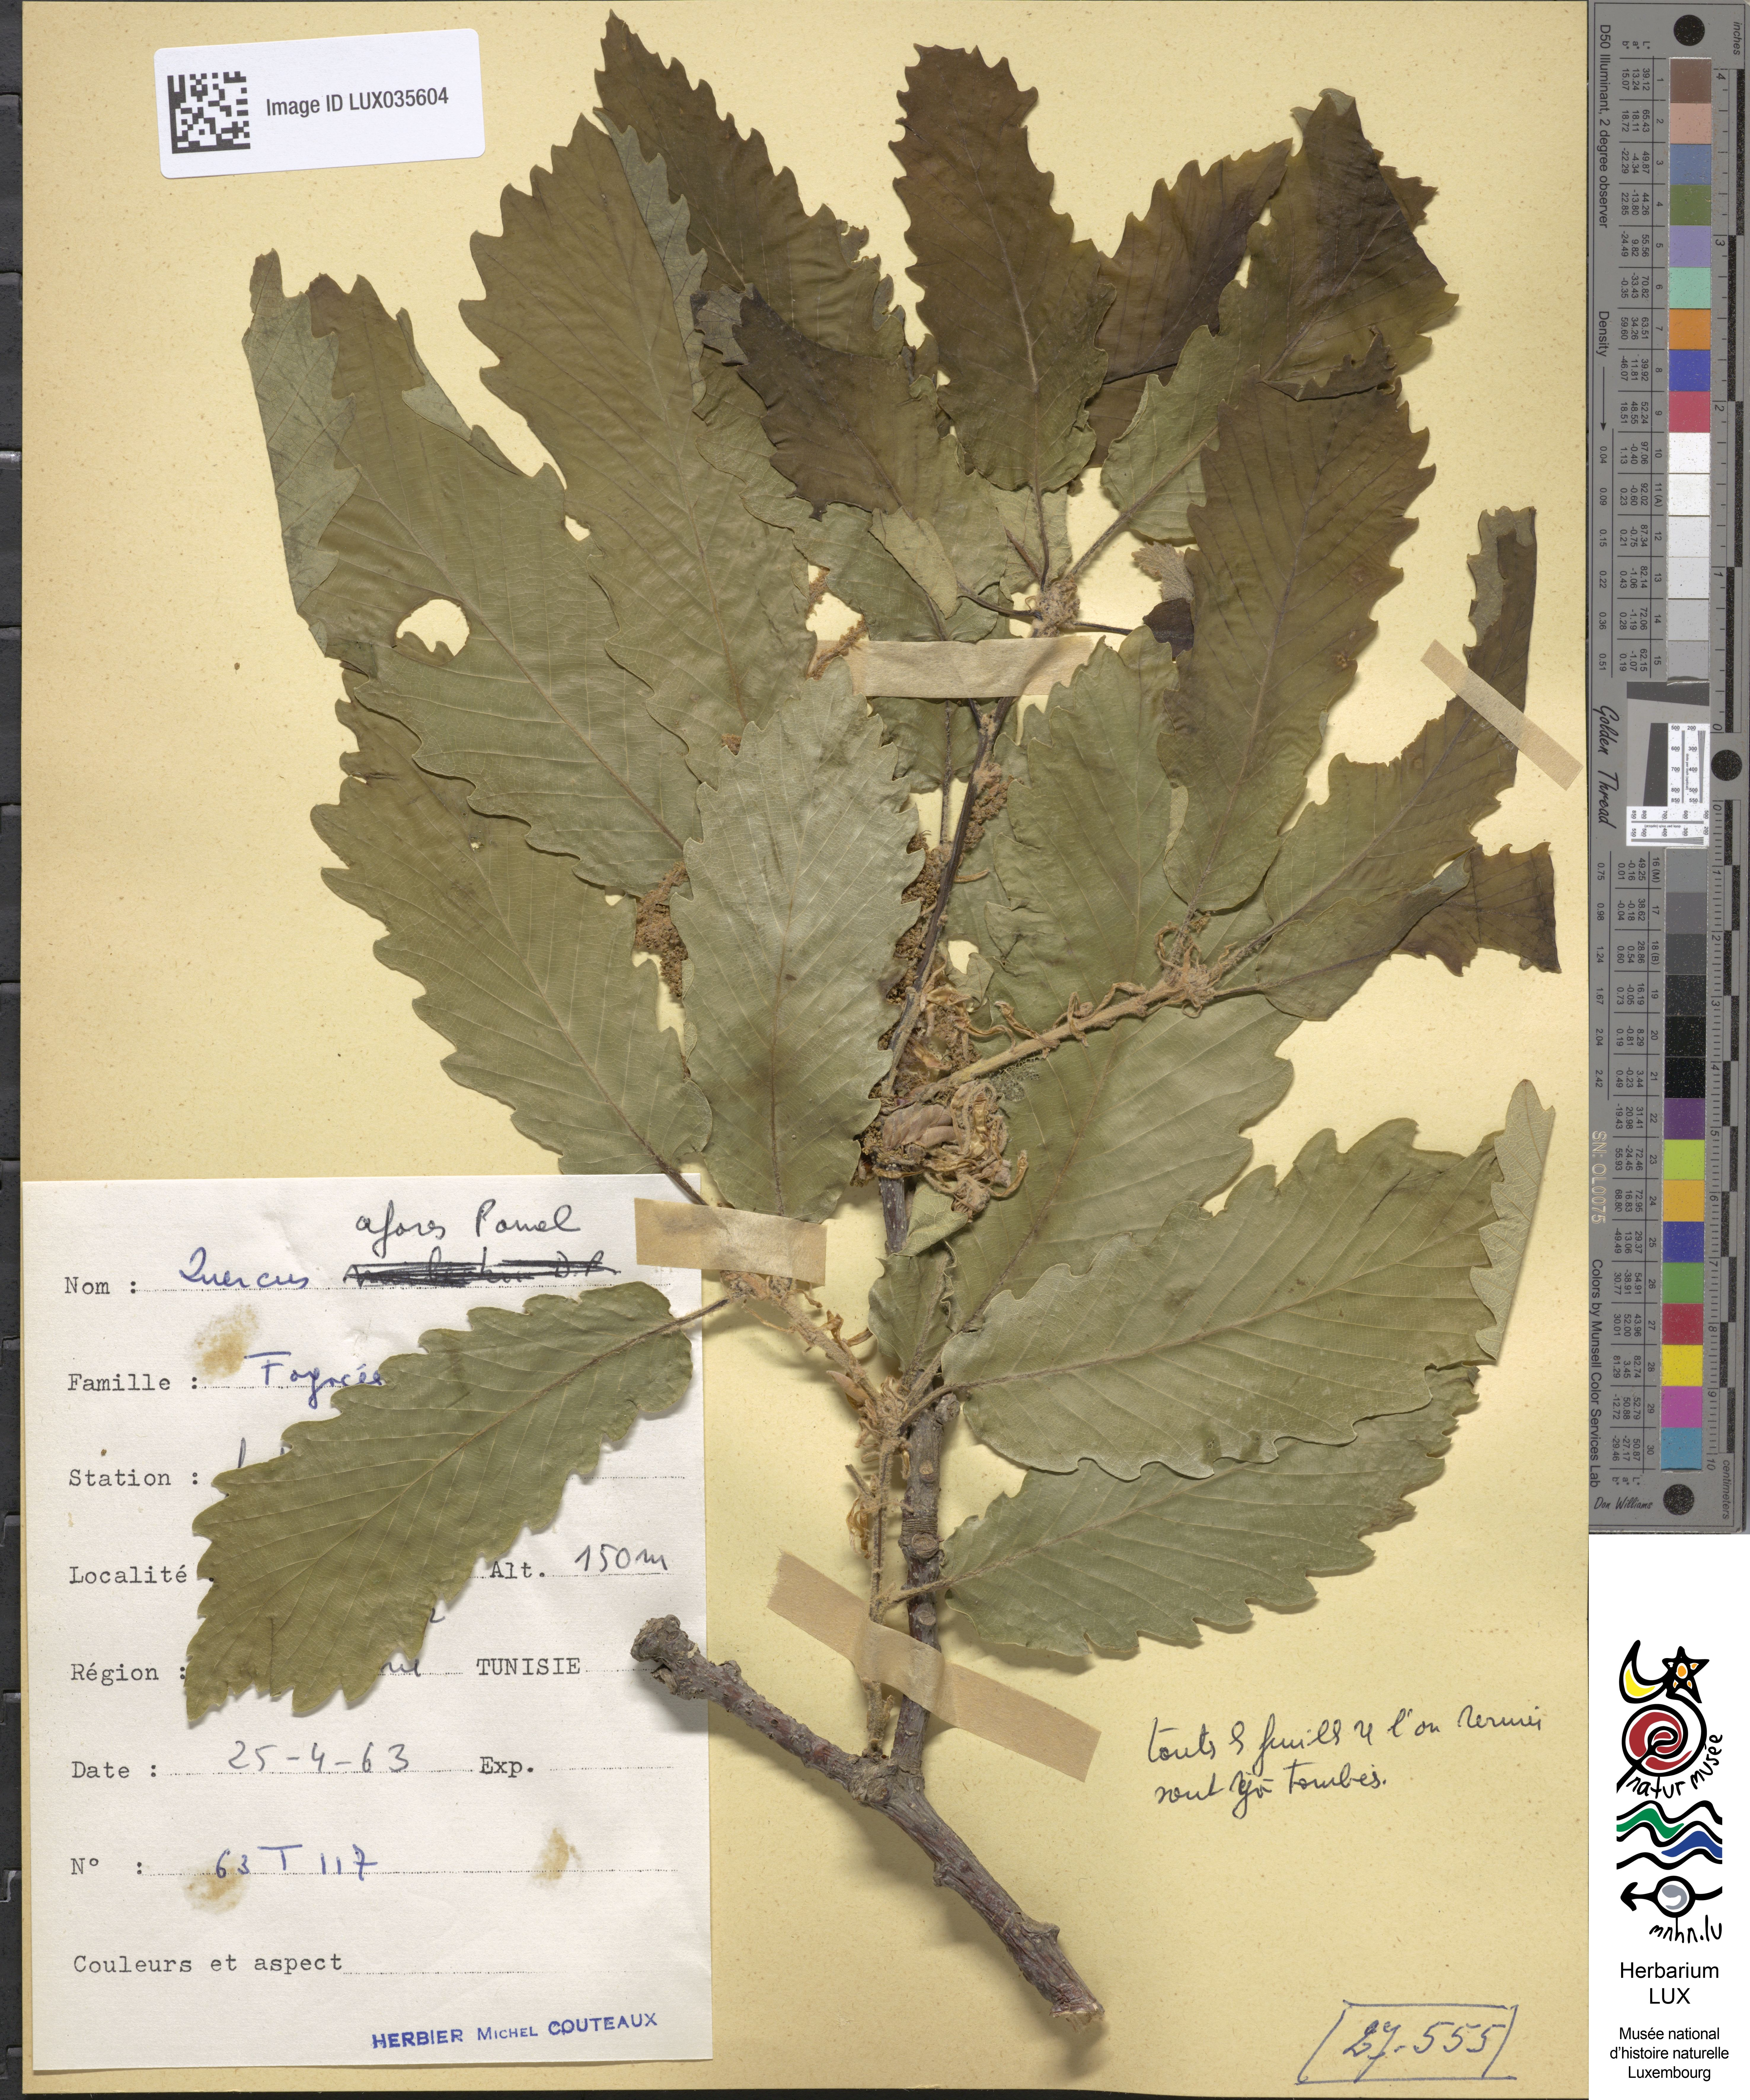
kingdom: Plantae
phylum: Tracheophyta
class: Magnoliopsida
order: Fagales
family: Fagaceae
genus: Quercus
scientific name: Quercus afares
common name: African oak
